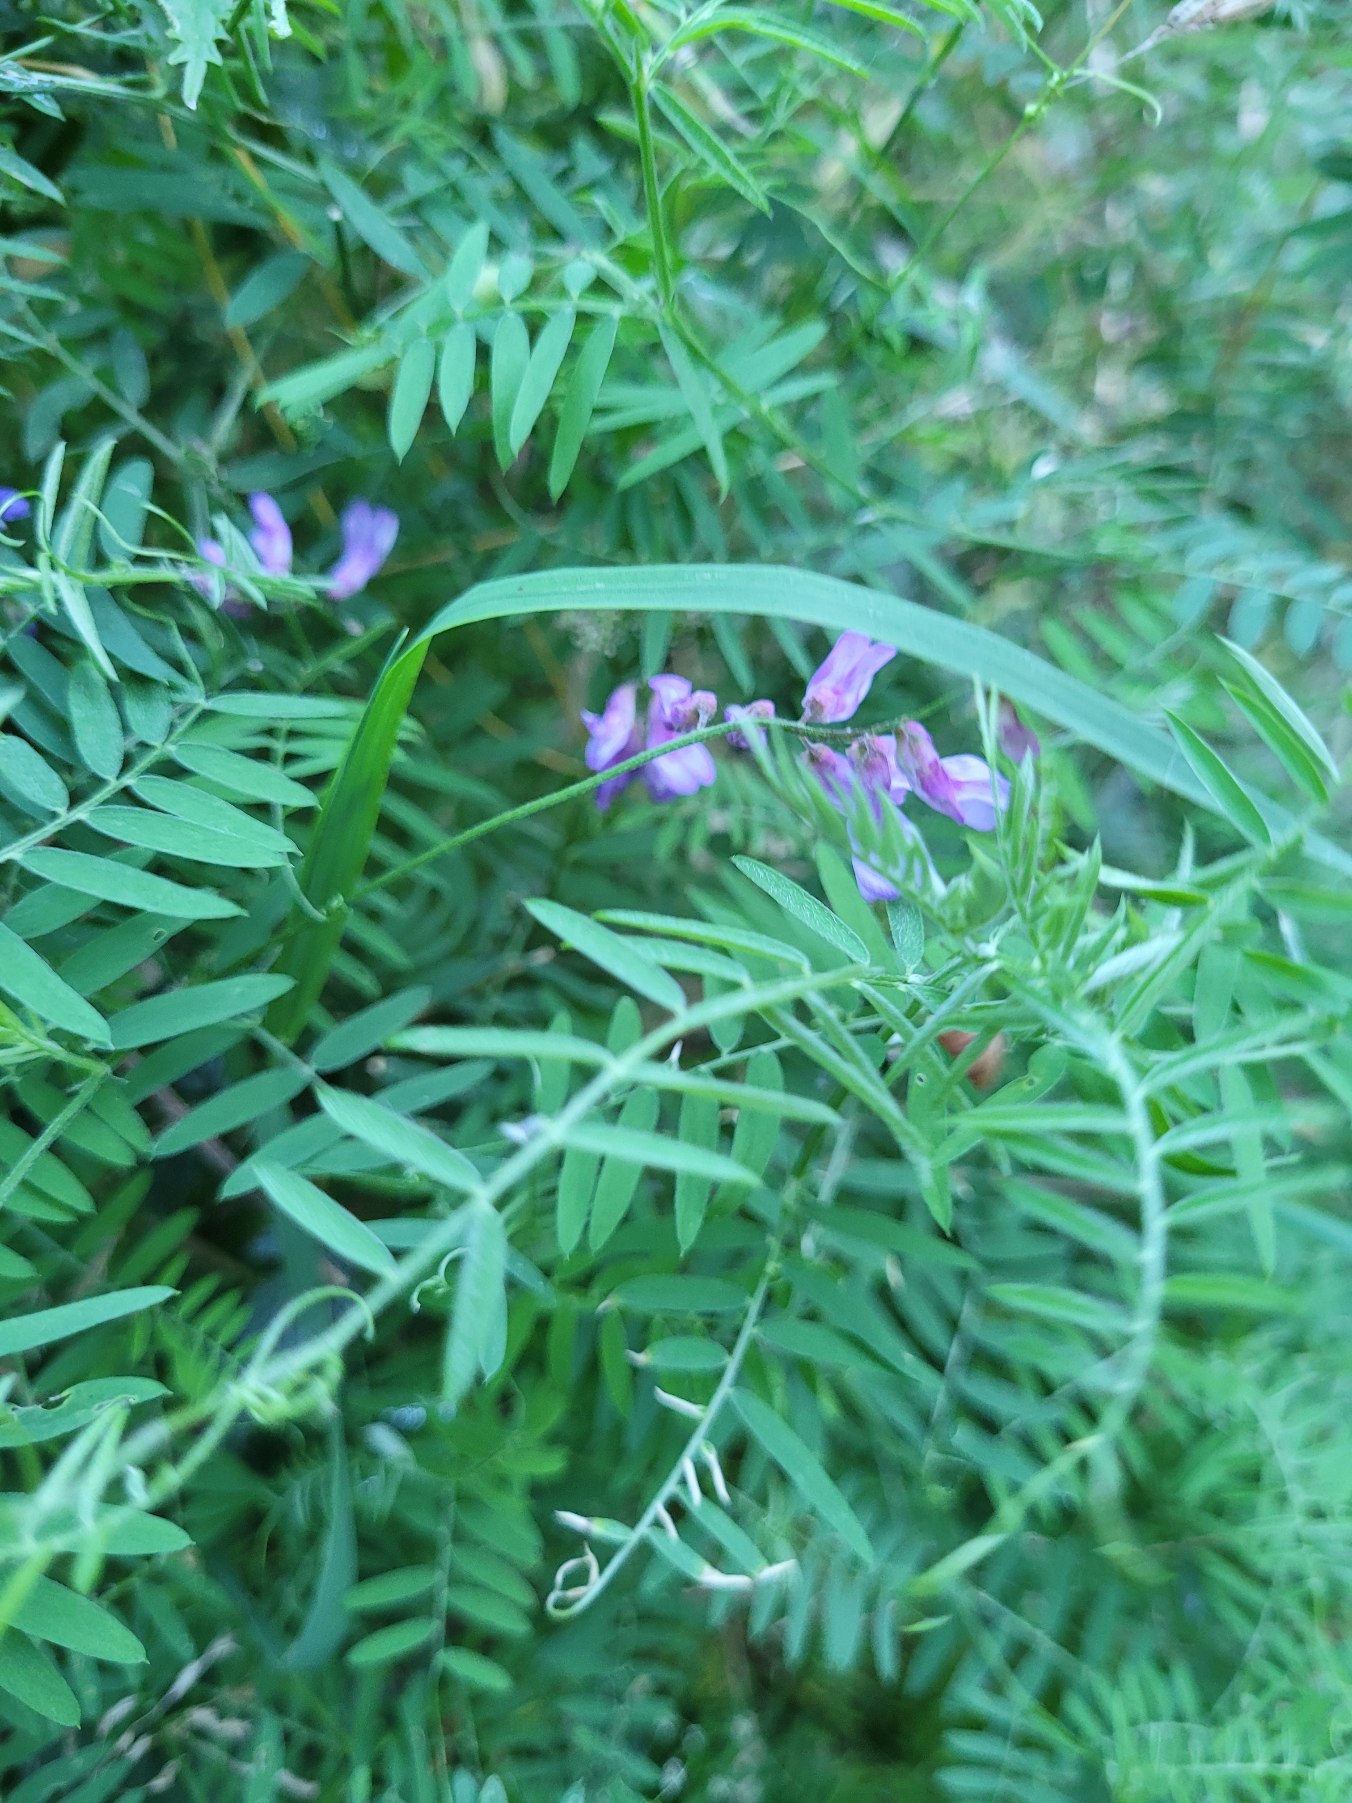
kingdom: Plantae
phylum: Tracheophyta
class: Magnoliopsida
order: Fabales
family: Fabaceae
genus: Vicia
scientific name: Vicia cracca
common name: Muse-vikke
